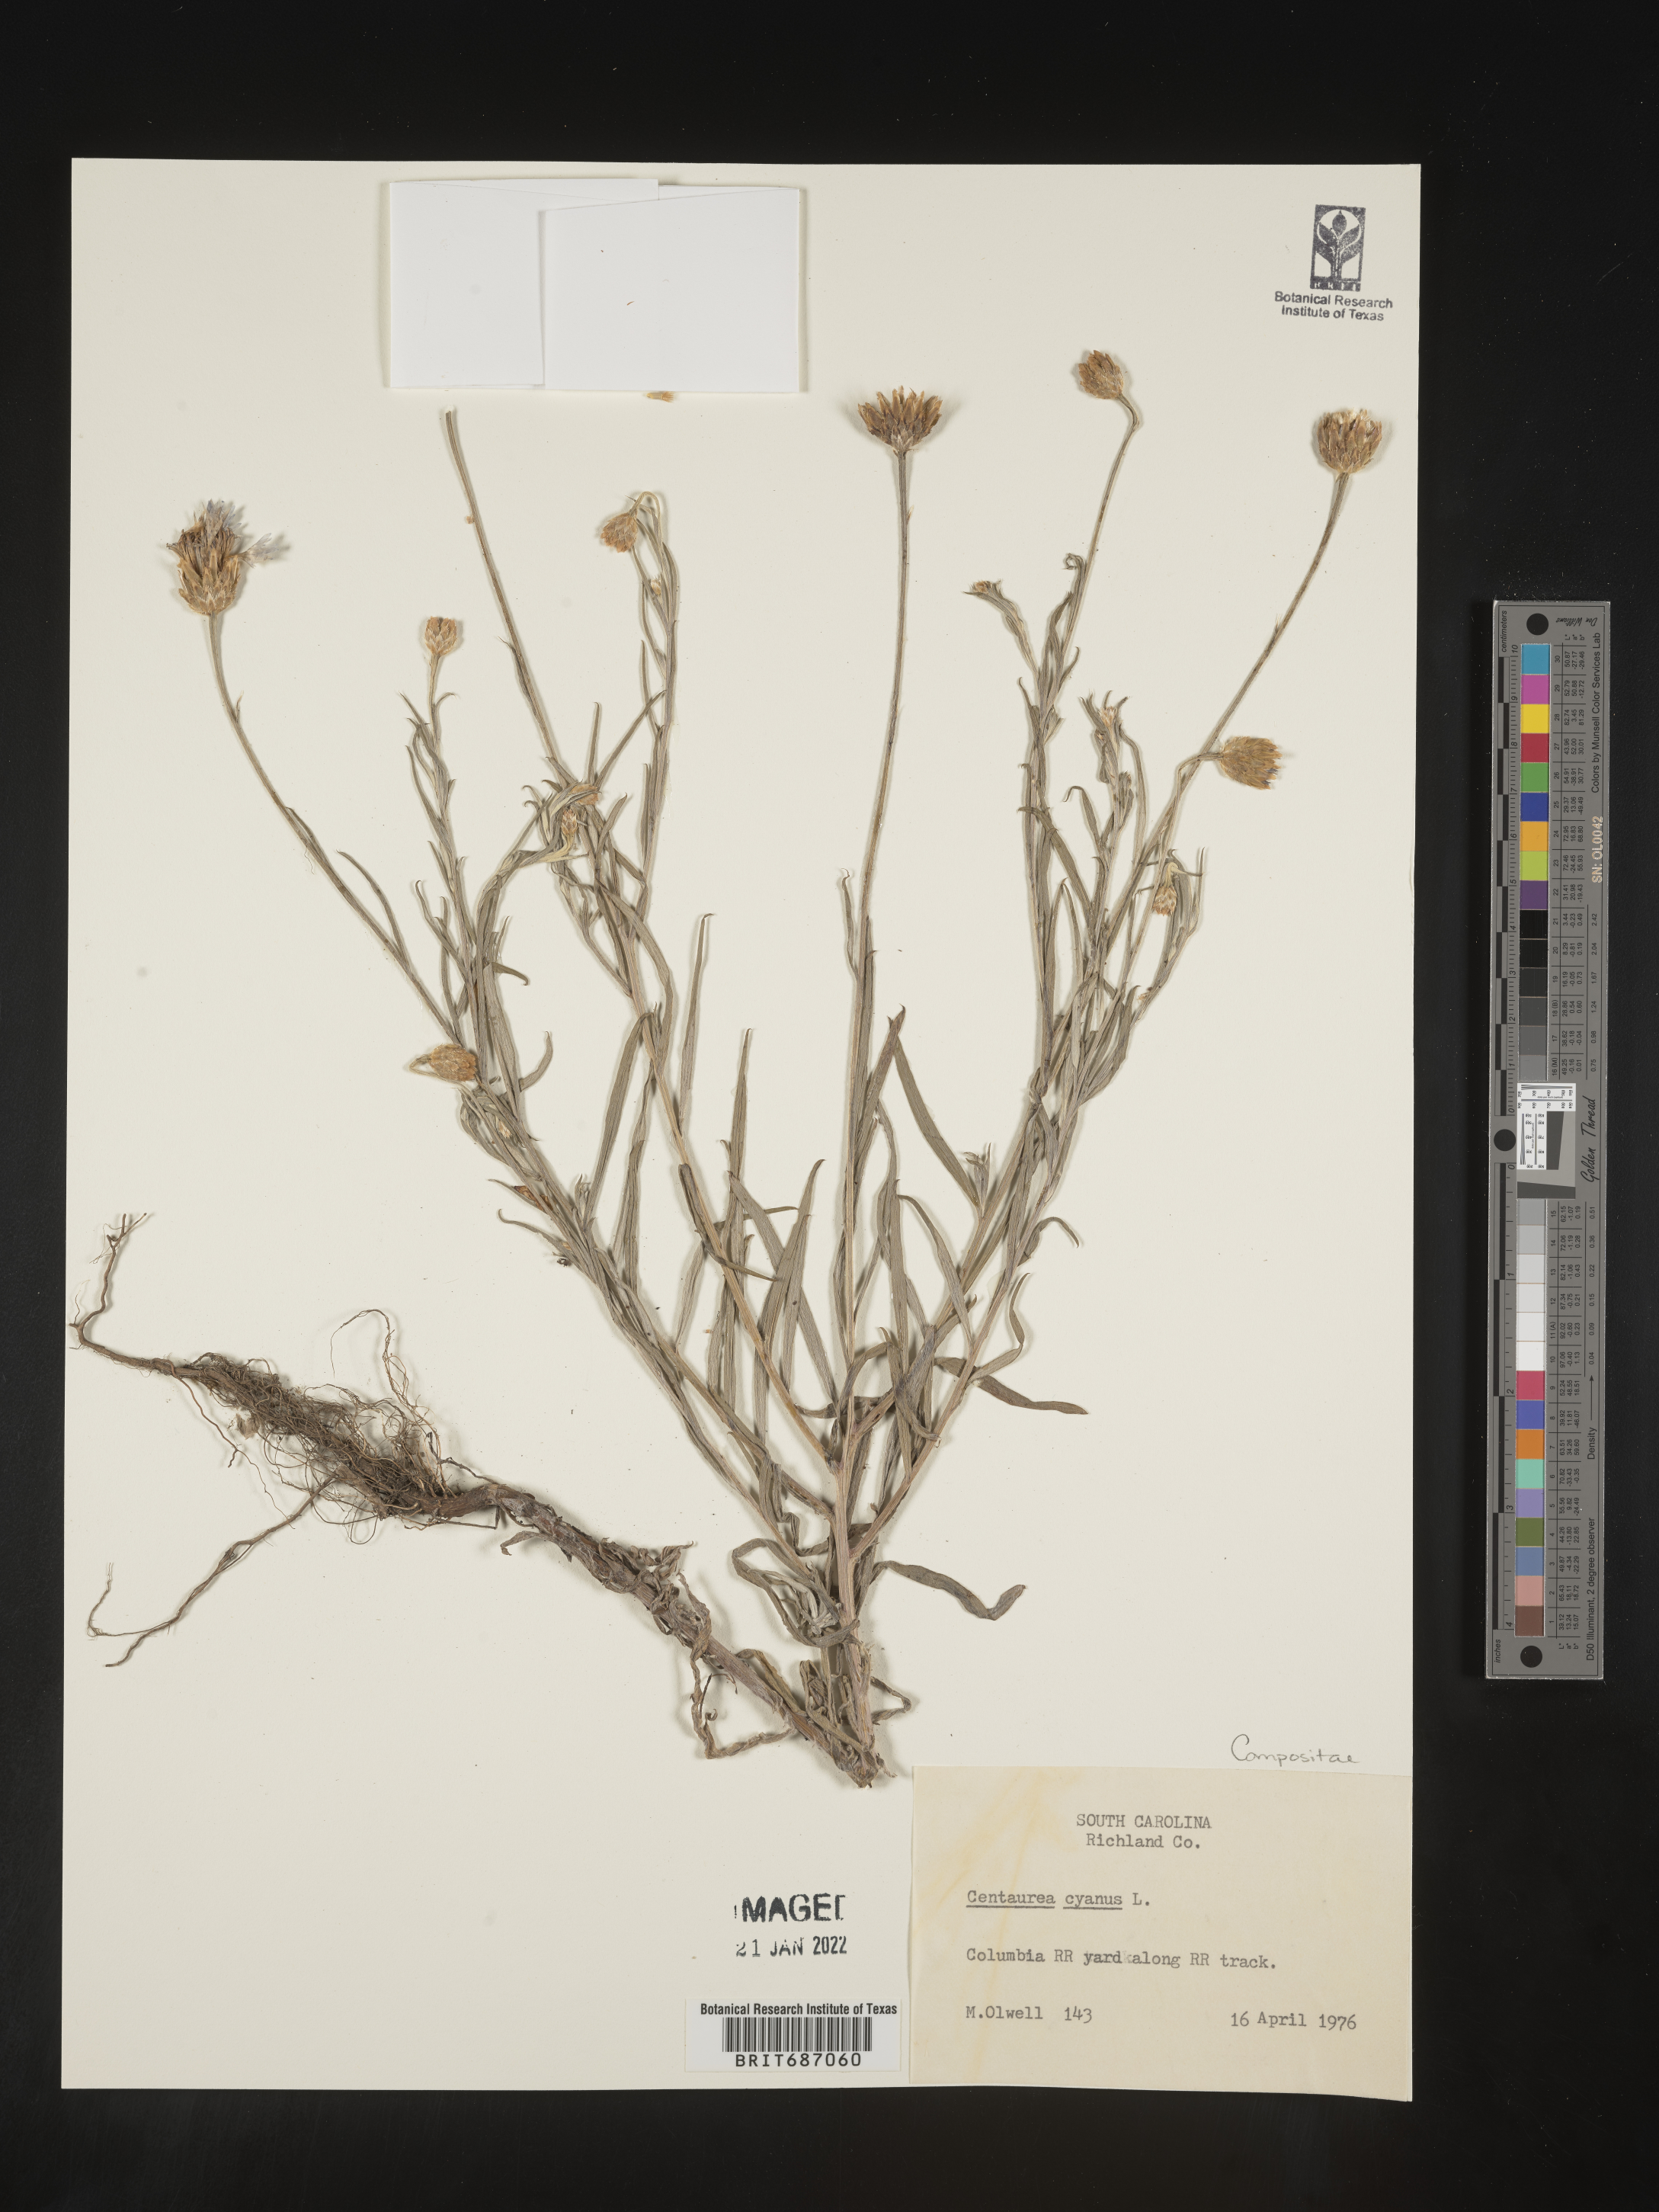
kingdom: Plantae
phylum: Tracheophyta
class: Magnoliopsida
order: Asterales
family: Asteraceae
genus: Centaurea
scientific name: Centaurea cyanus
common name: Cornflower
